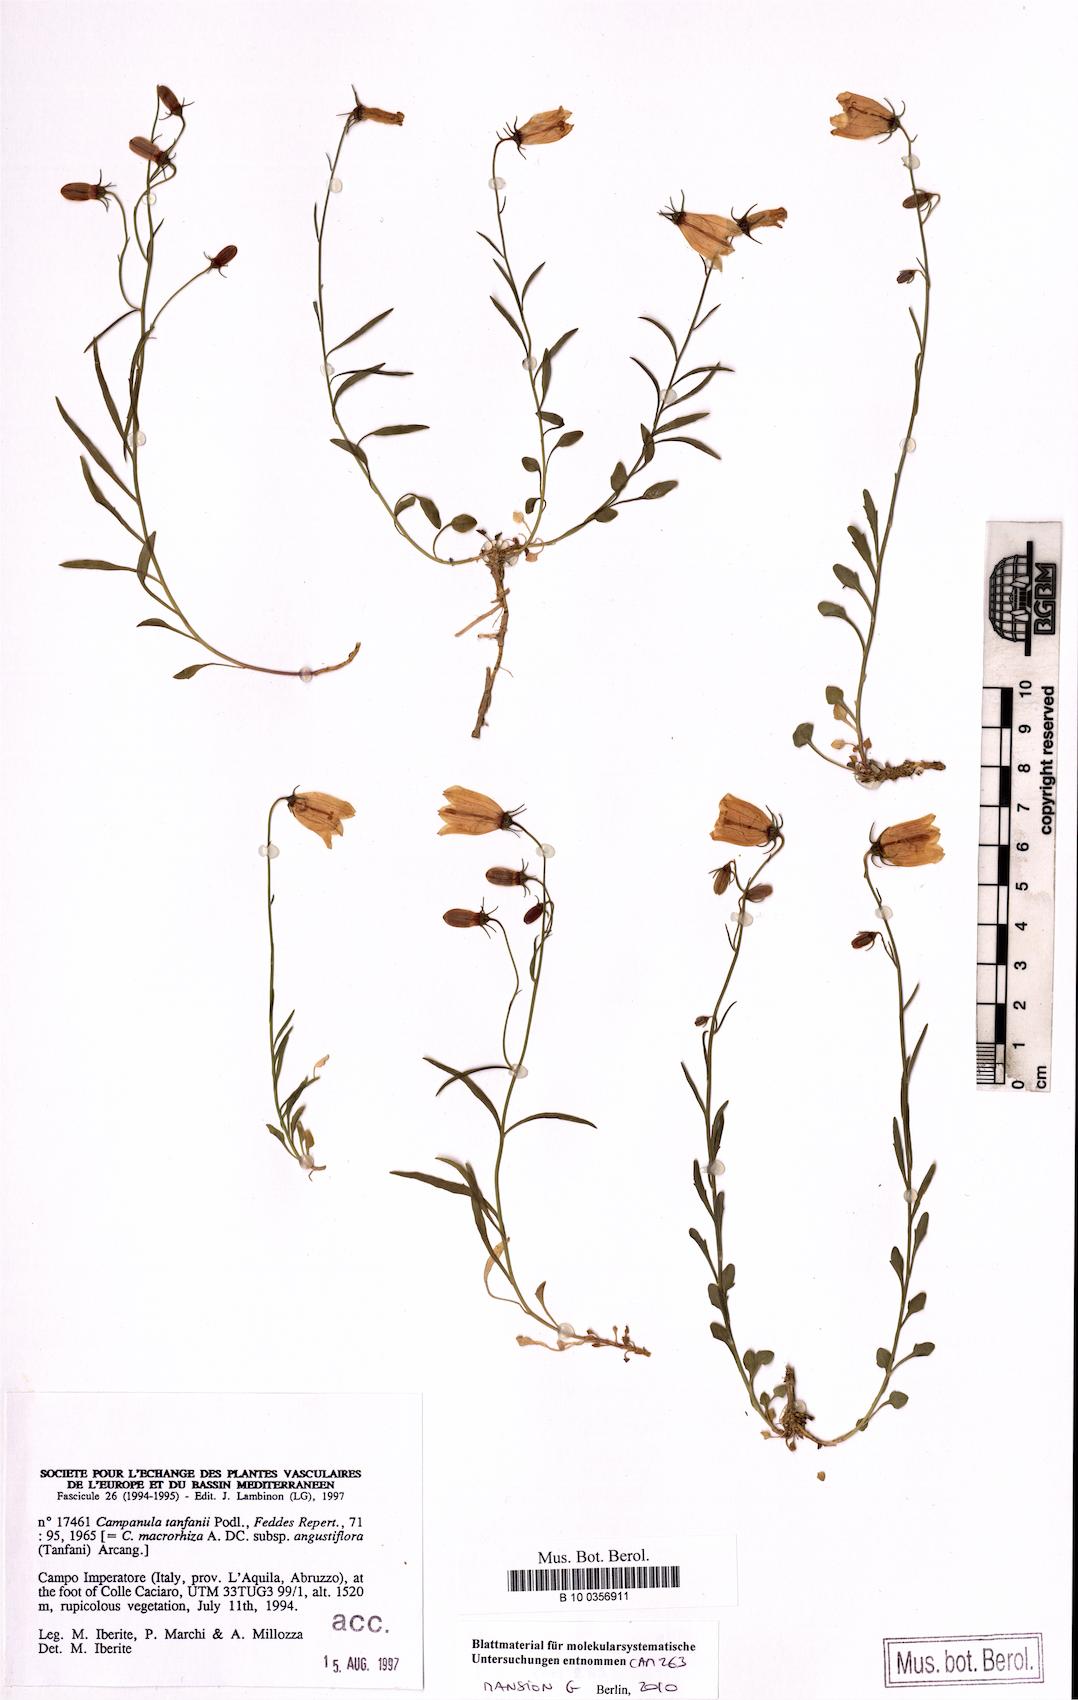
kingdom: Plantae
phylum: Tracheophyta
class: Magnoliopsida
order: Asterales
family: Campanulaceae
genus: Campanula
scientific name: Campanula tanfanii
